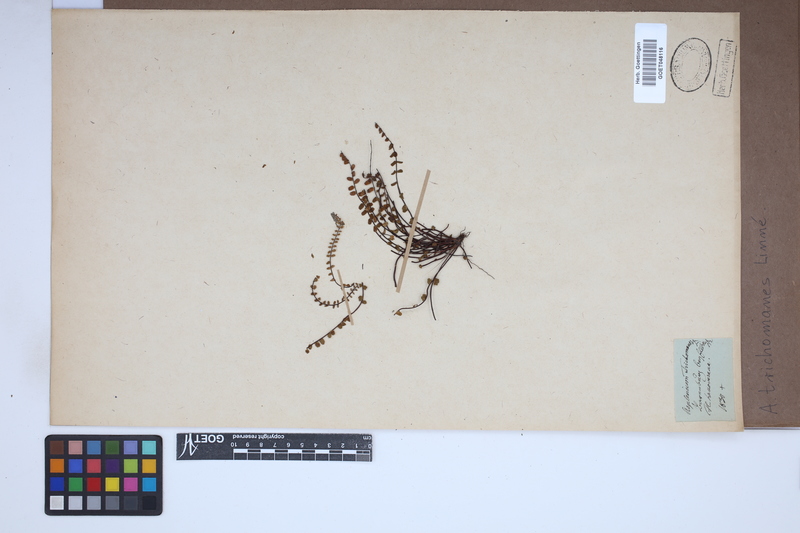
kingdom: Plantae
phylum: Tracheophyta
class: Polypodiopsida
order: Polypodiales
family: Aspleniaceae
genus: Asplenium
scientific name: Asplenium trichomanes
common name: Maidenhair spleenwort
